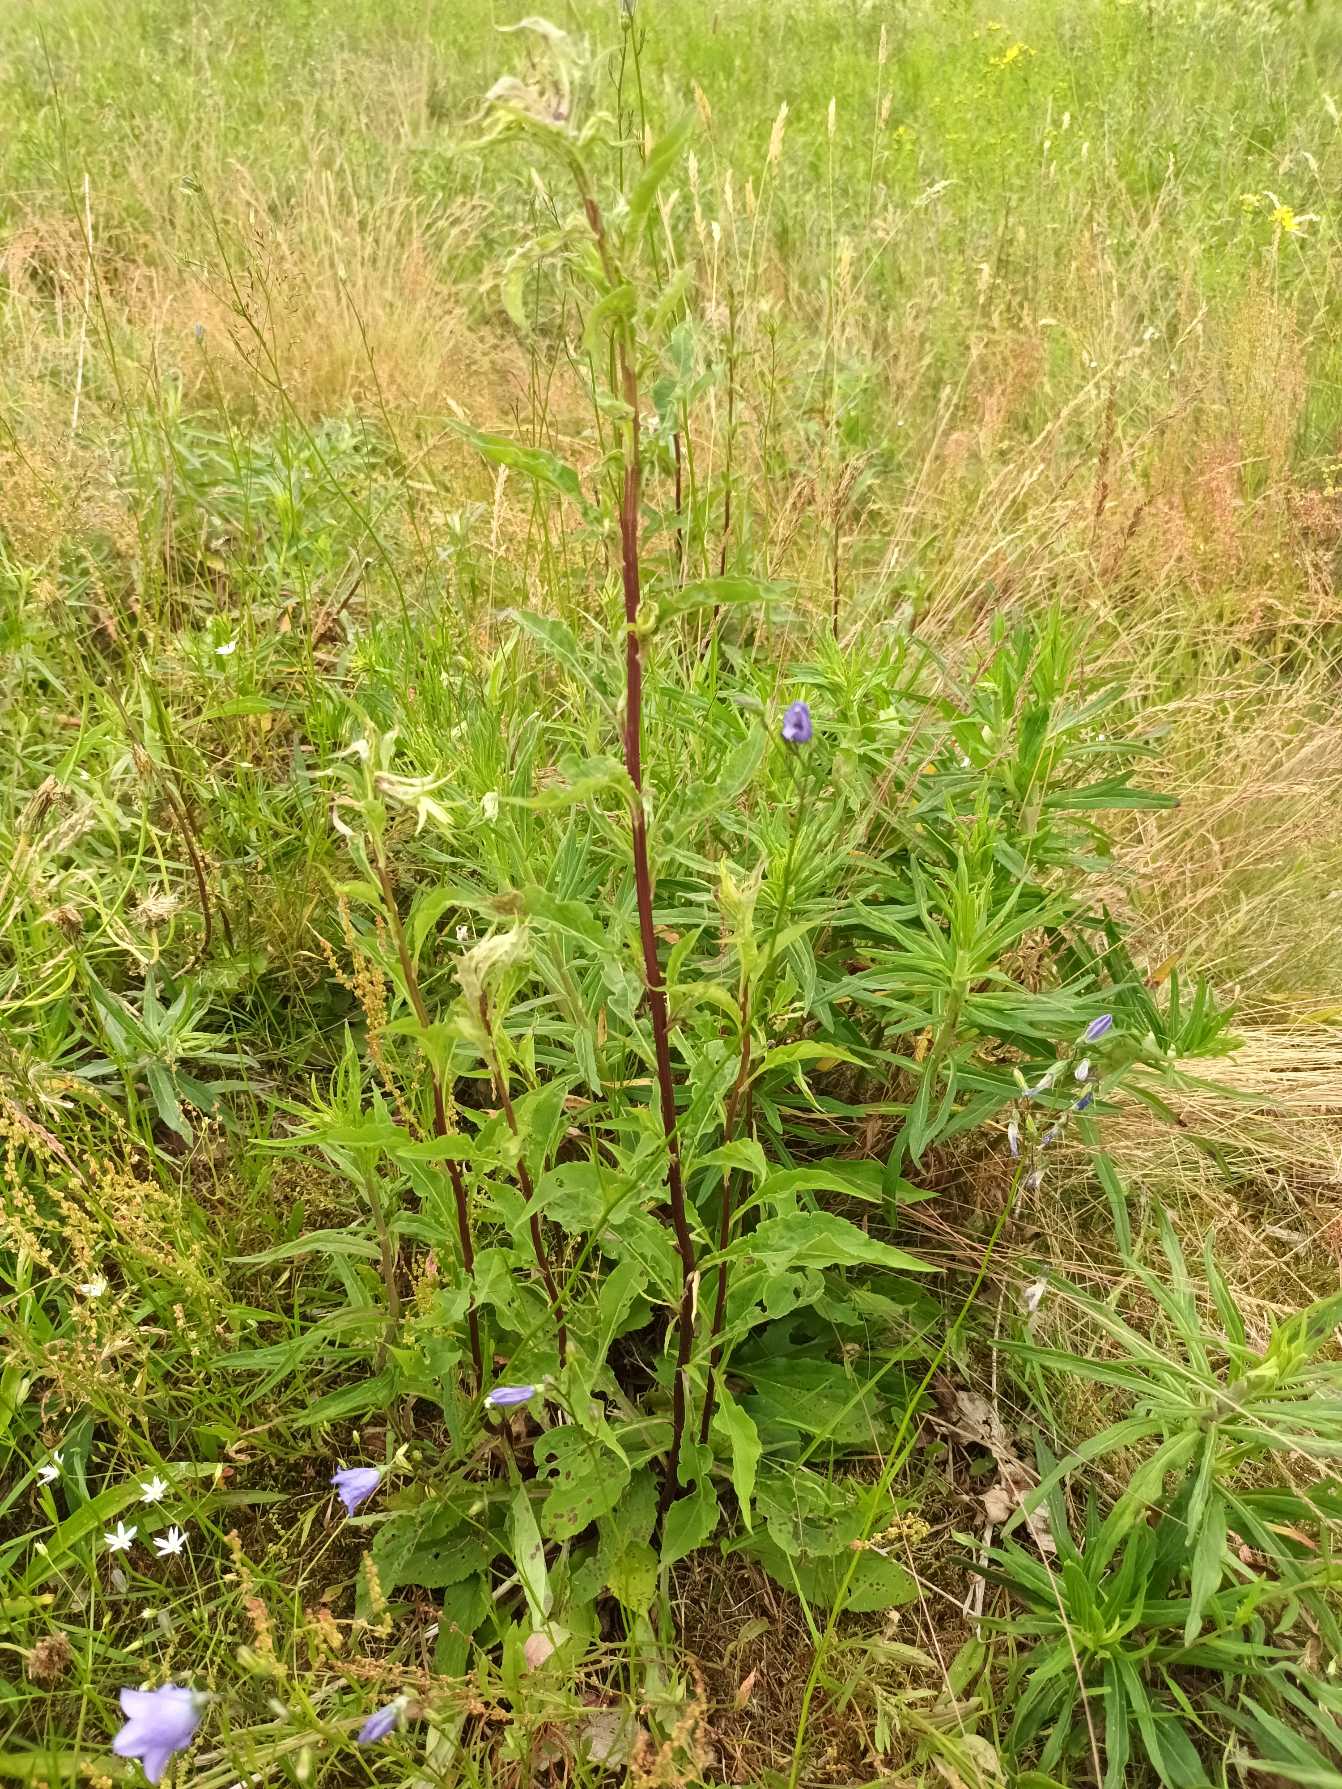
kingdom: Plantae
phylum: Tracheophyta
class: Magnoliopsida
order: Asterales
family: Asteraceae
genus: Solidago
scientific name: Solidago virgaurea
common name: Almindelig gyldenris
